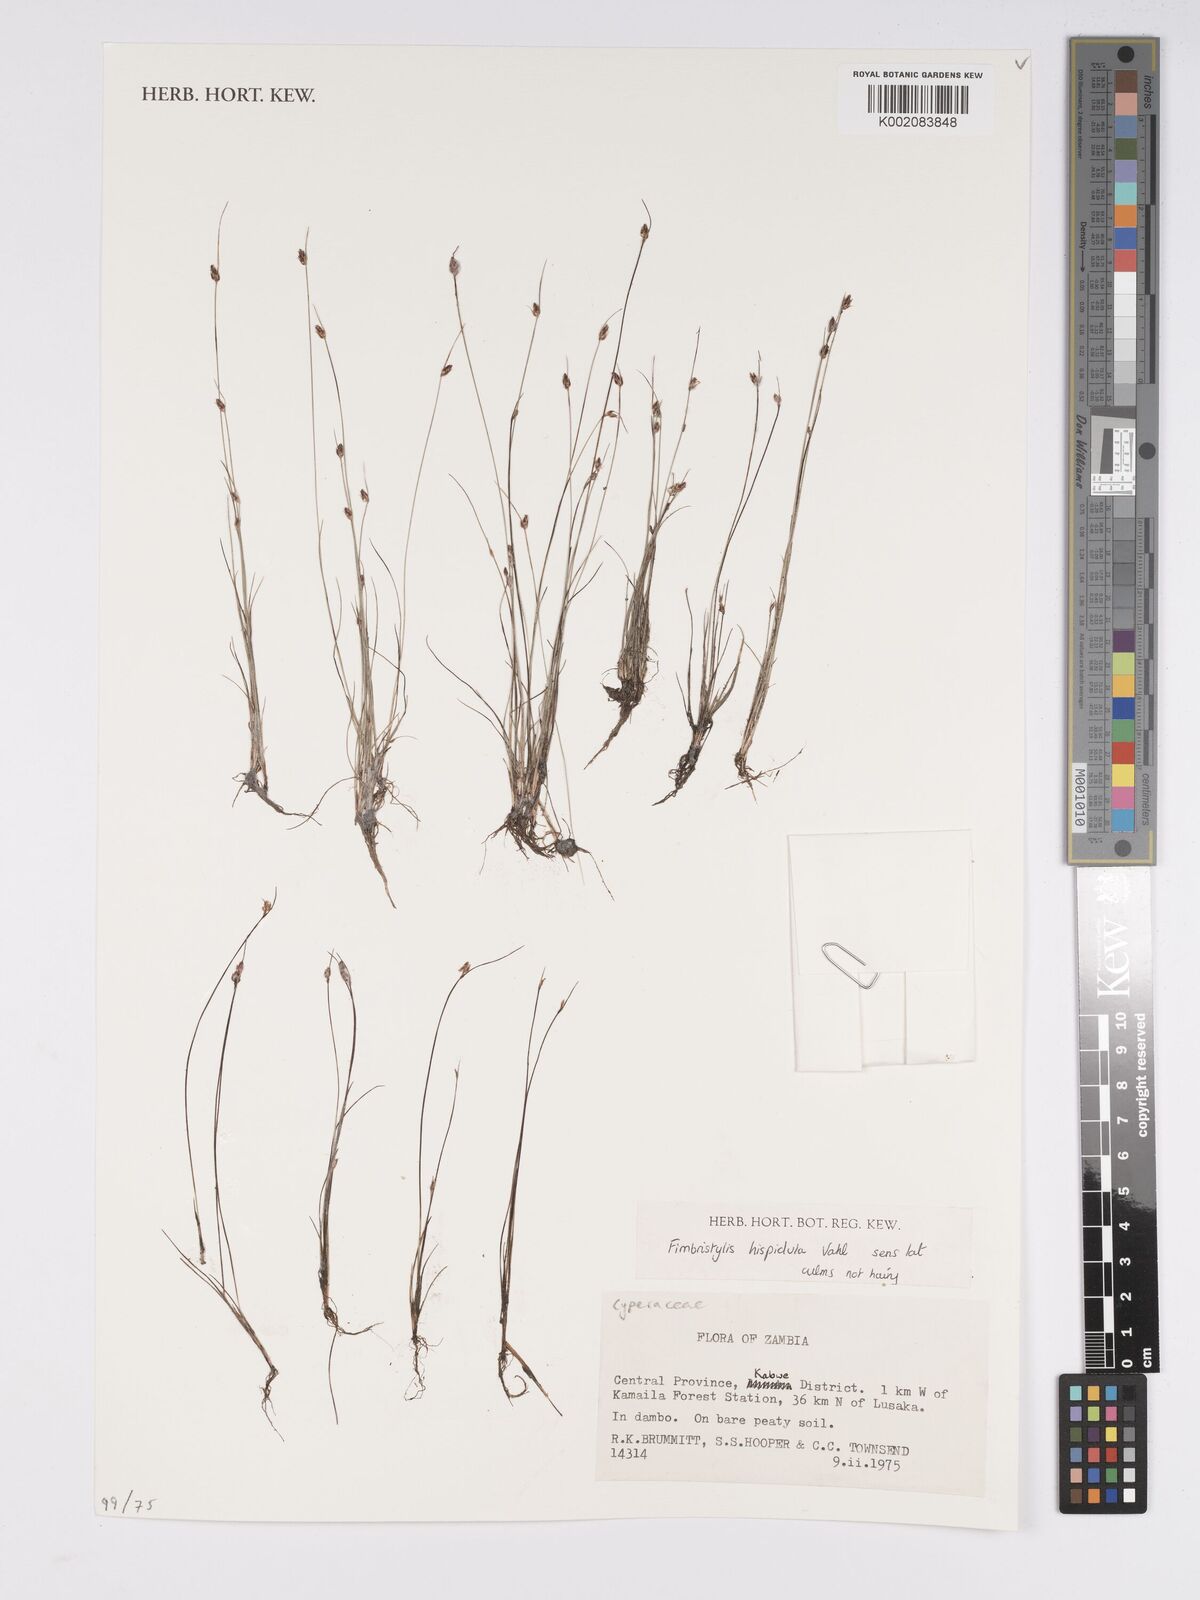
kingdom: Plantae
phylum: Tracheophyta
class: Liliopsida
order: Poales
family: Cyperaceae
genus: Bulbostylis
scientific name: Bulbostylis hispidula
